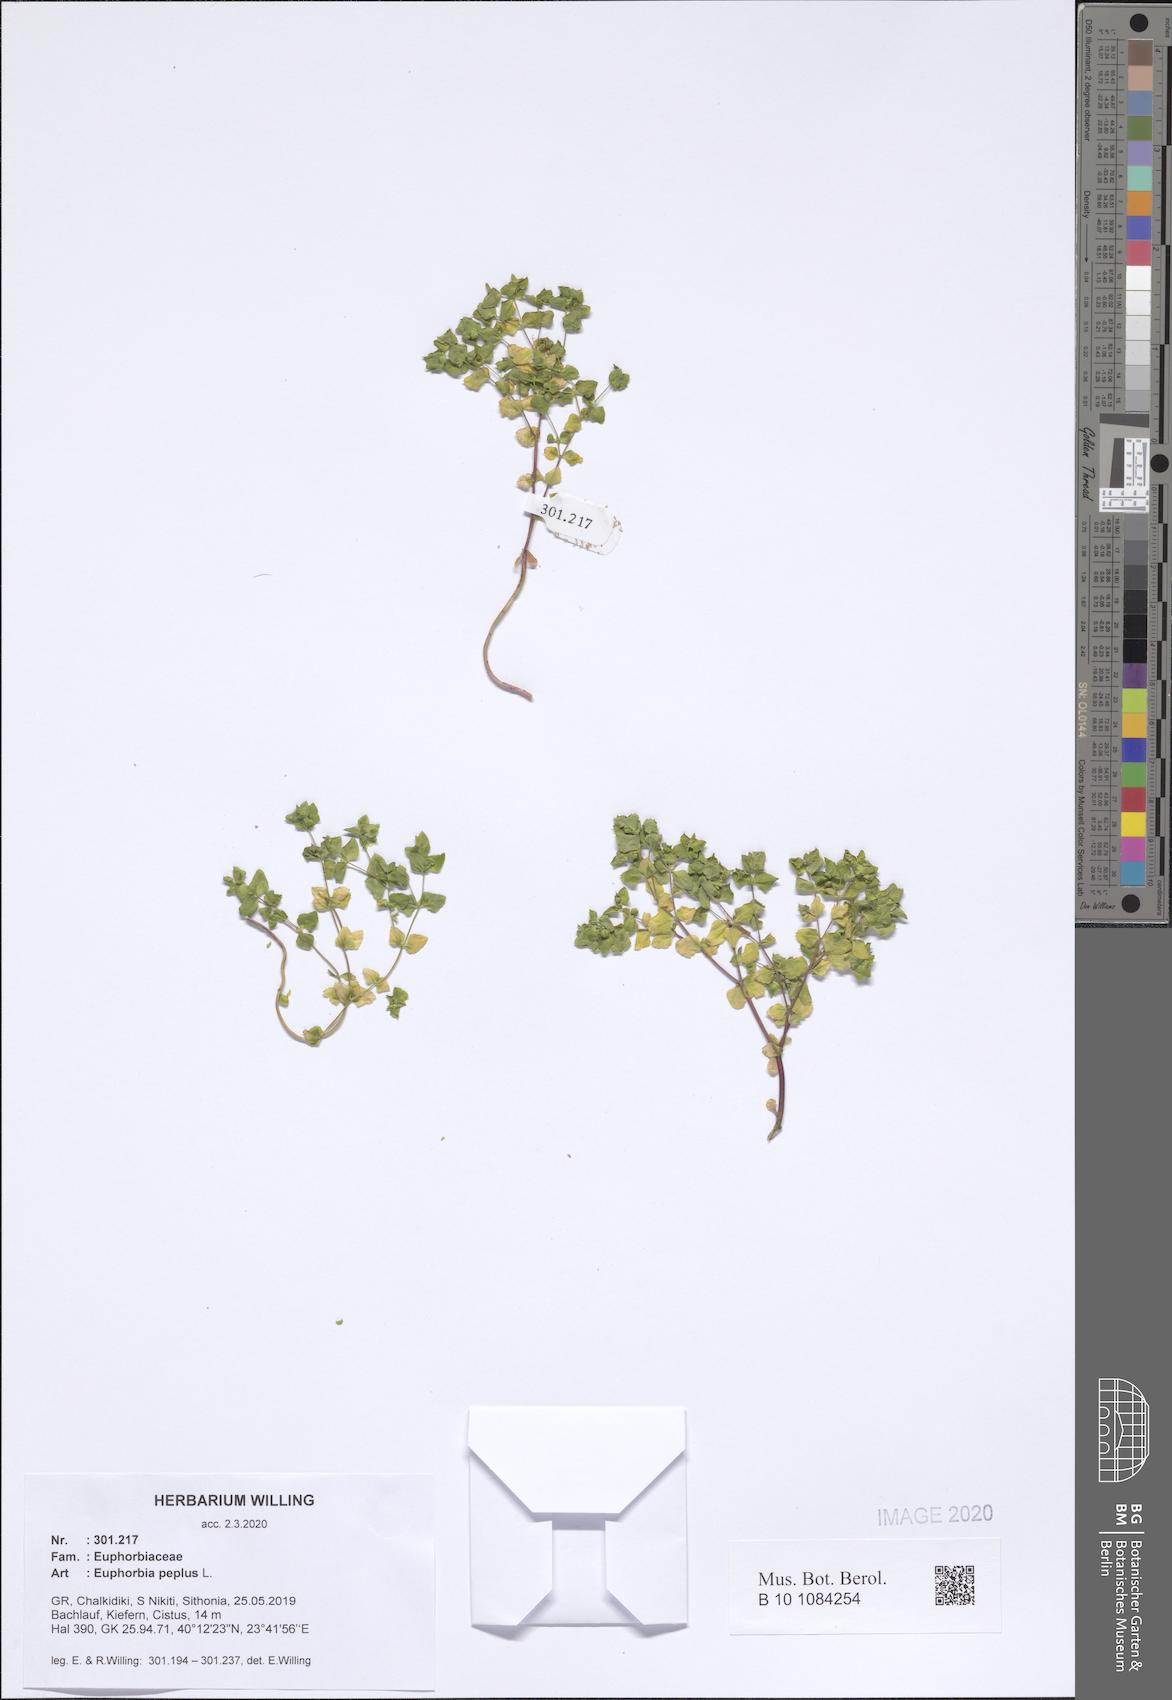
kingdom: Plantae
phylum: Tracheophyta
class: Magnoliopsida
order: Malpighiales
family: Euphorbiaceae
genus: Euphorbia
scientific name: Euphorbia peplus
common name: Petty spurge
